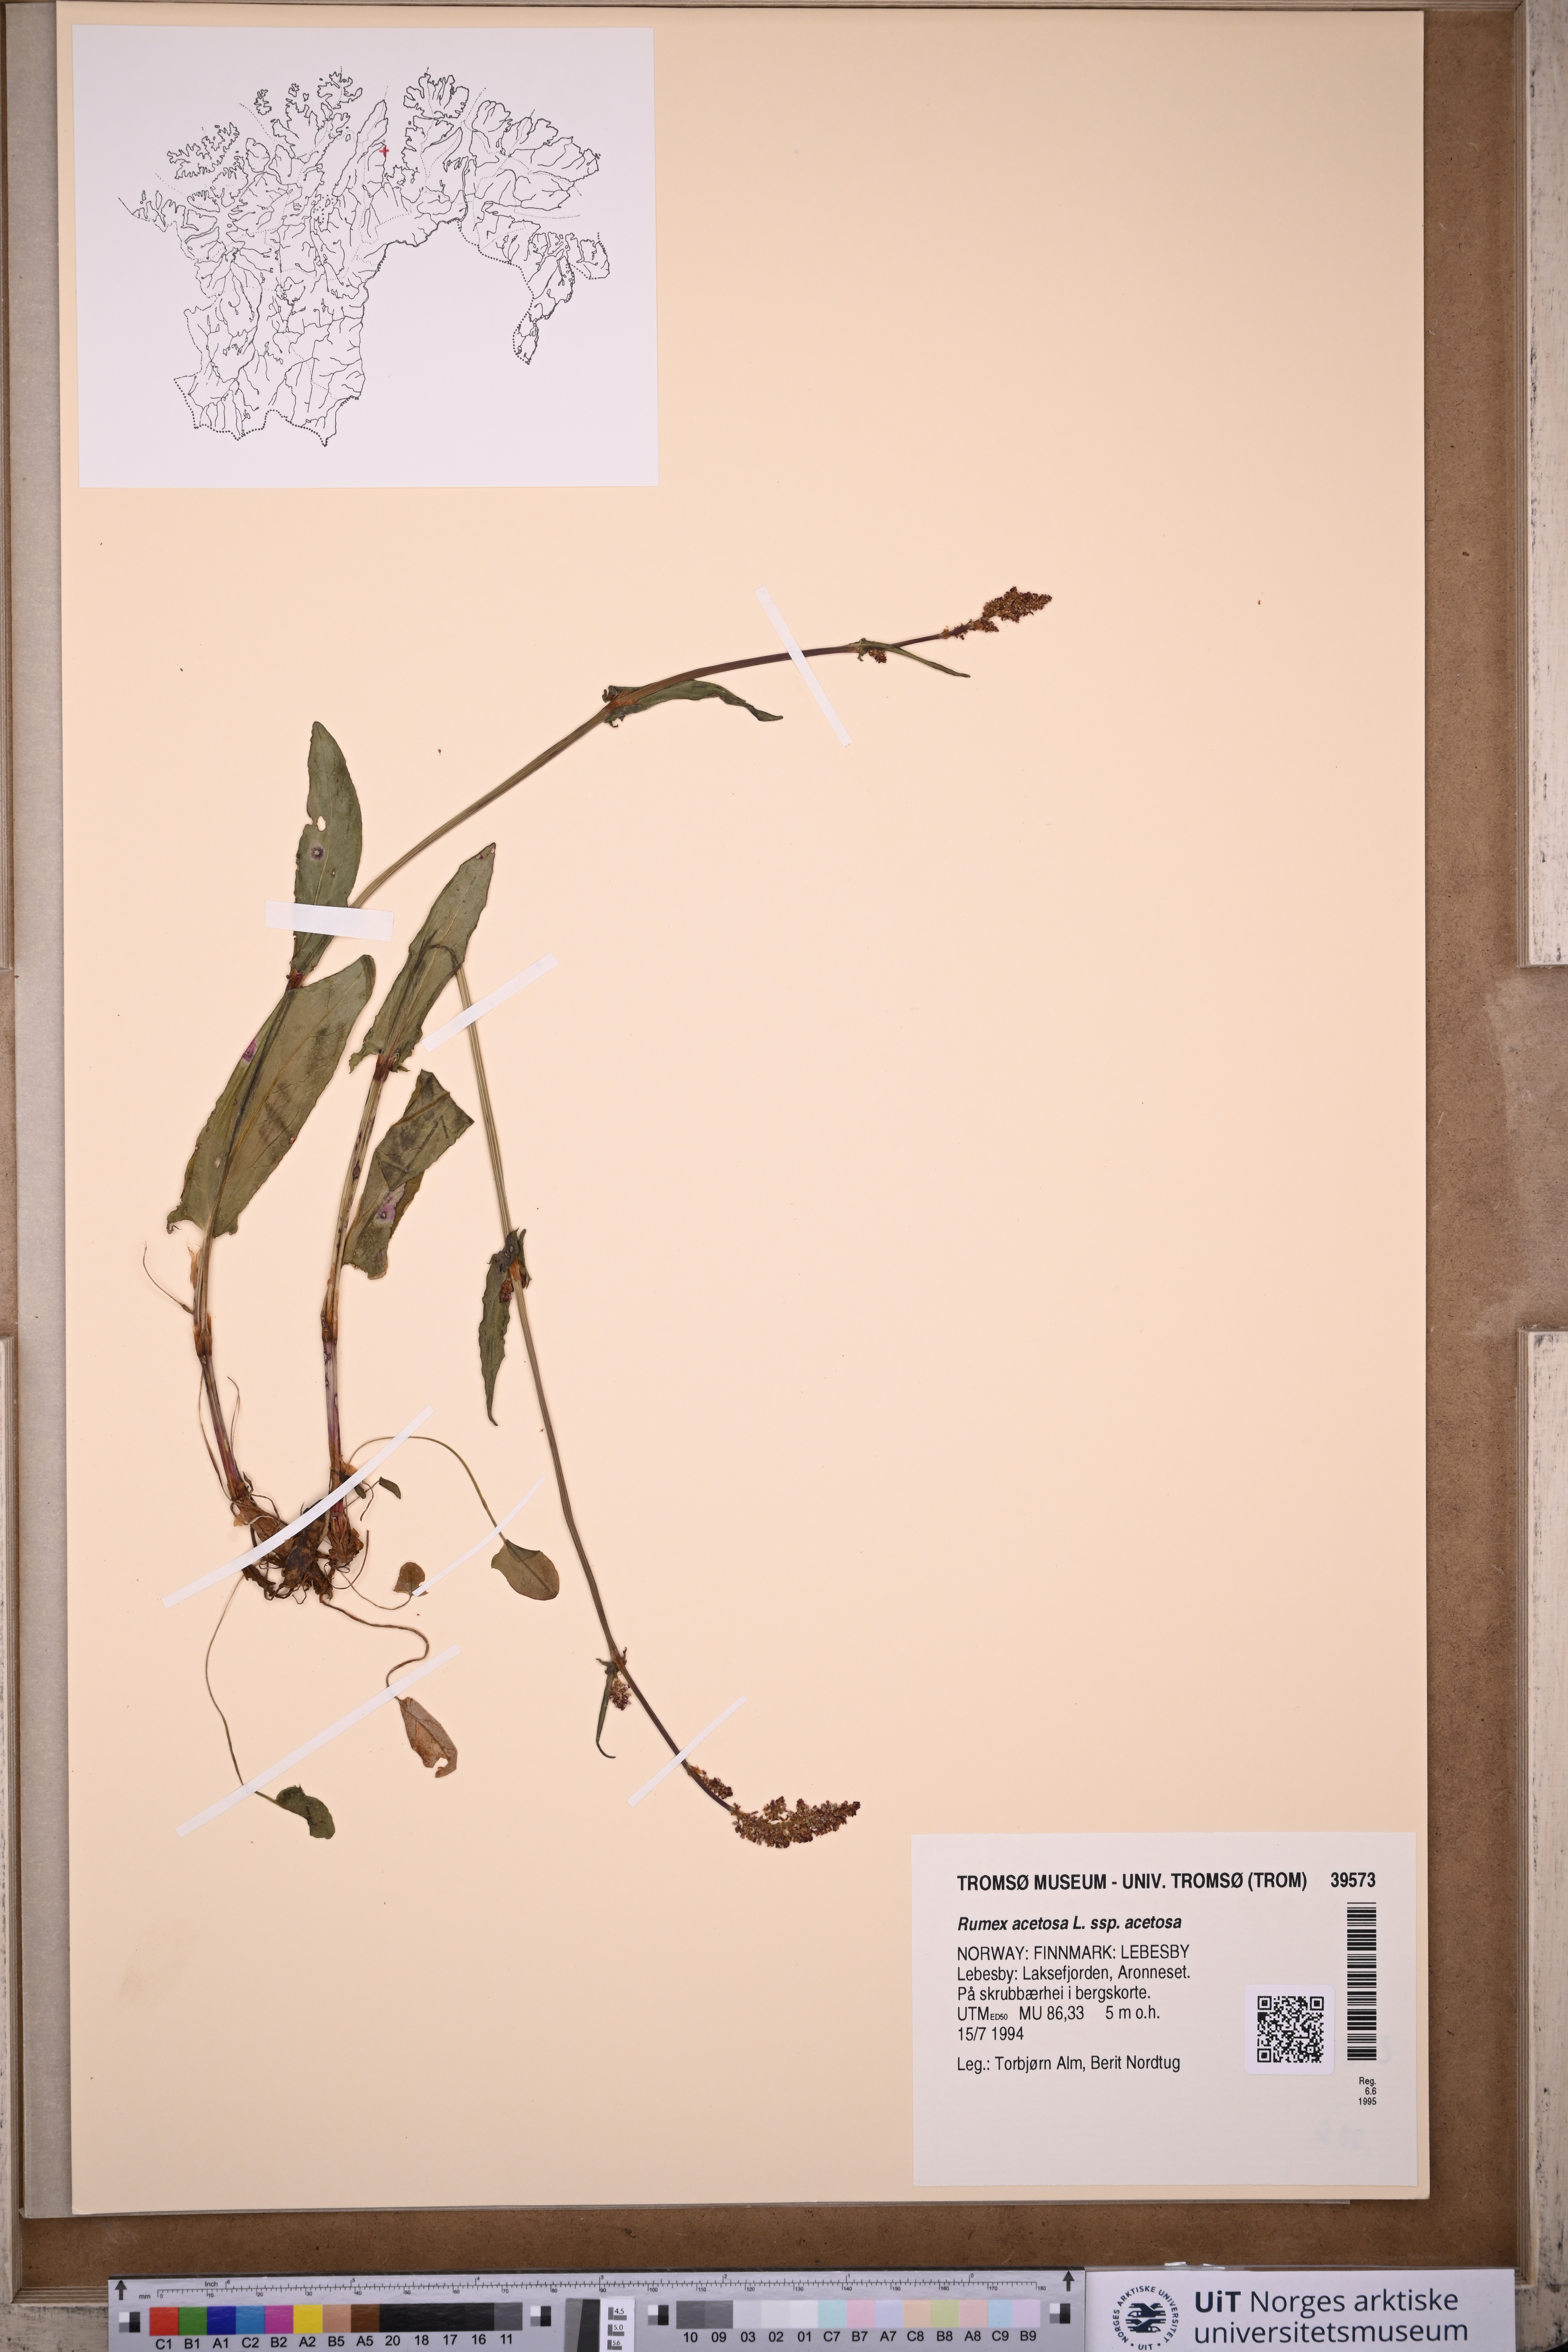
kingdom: Plantae
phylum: Tracheophyta
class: Magnoliopsida
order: Caryophyllales
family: Polygonaceae
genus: Rumex
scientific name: Rumex acetosa
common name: Garden sorrel
